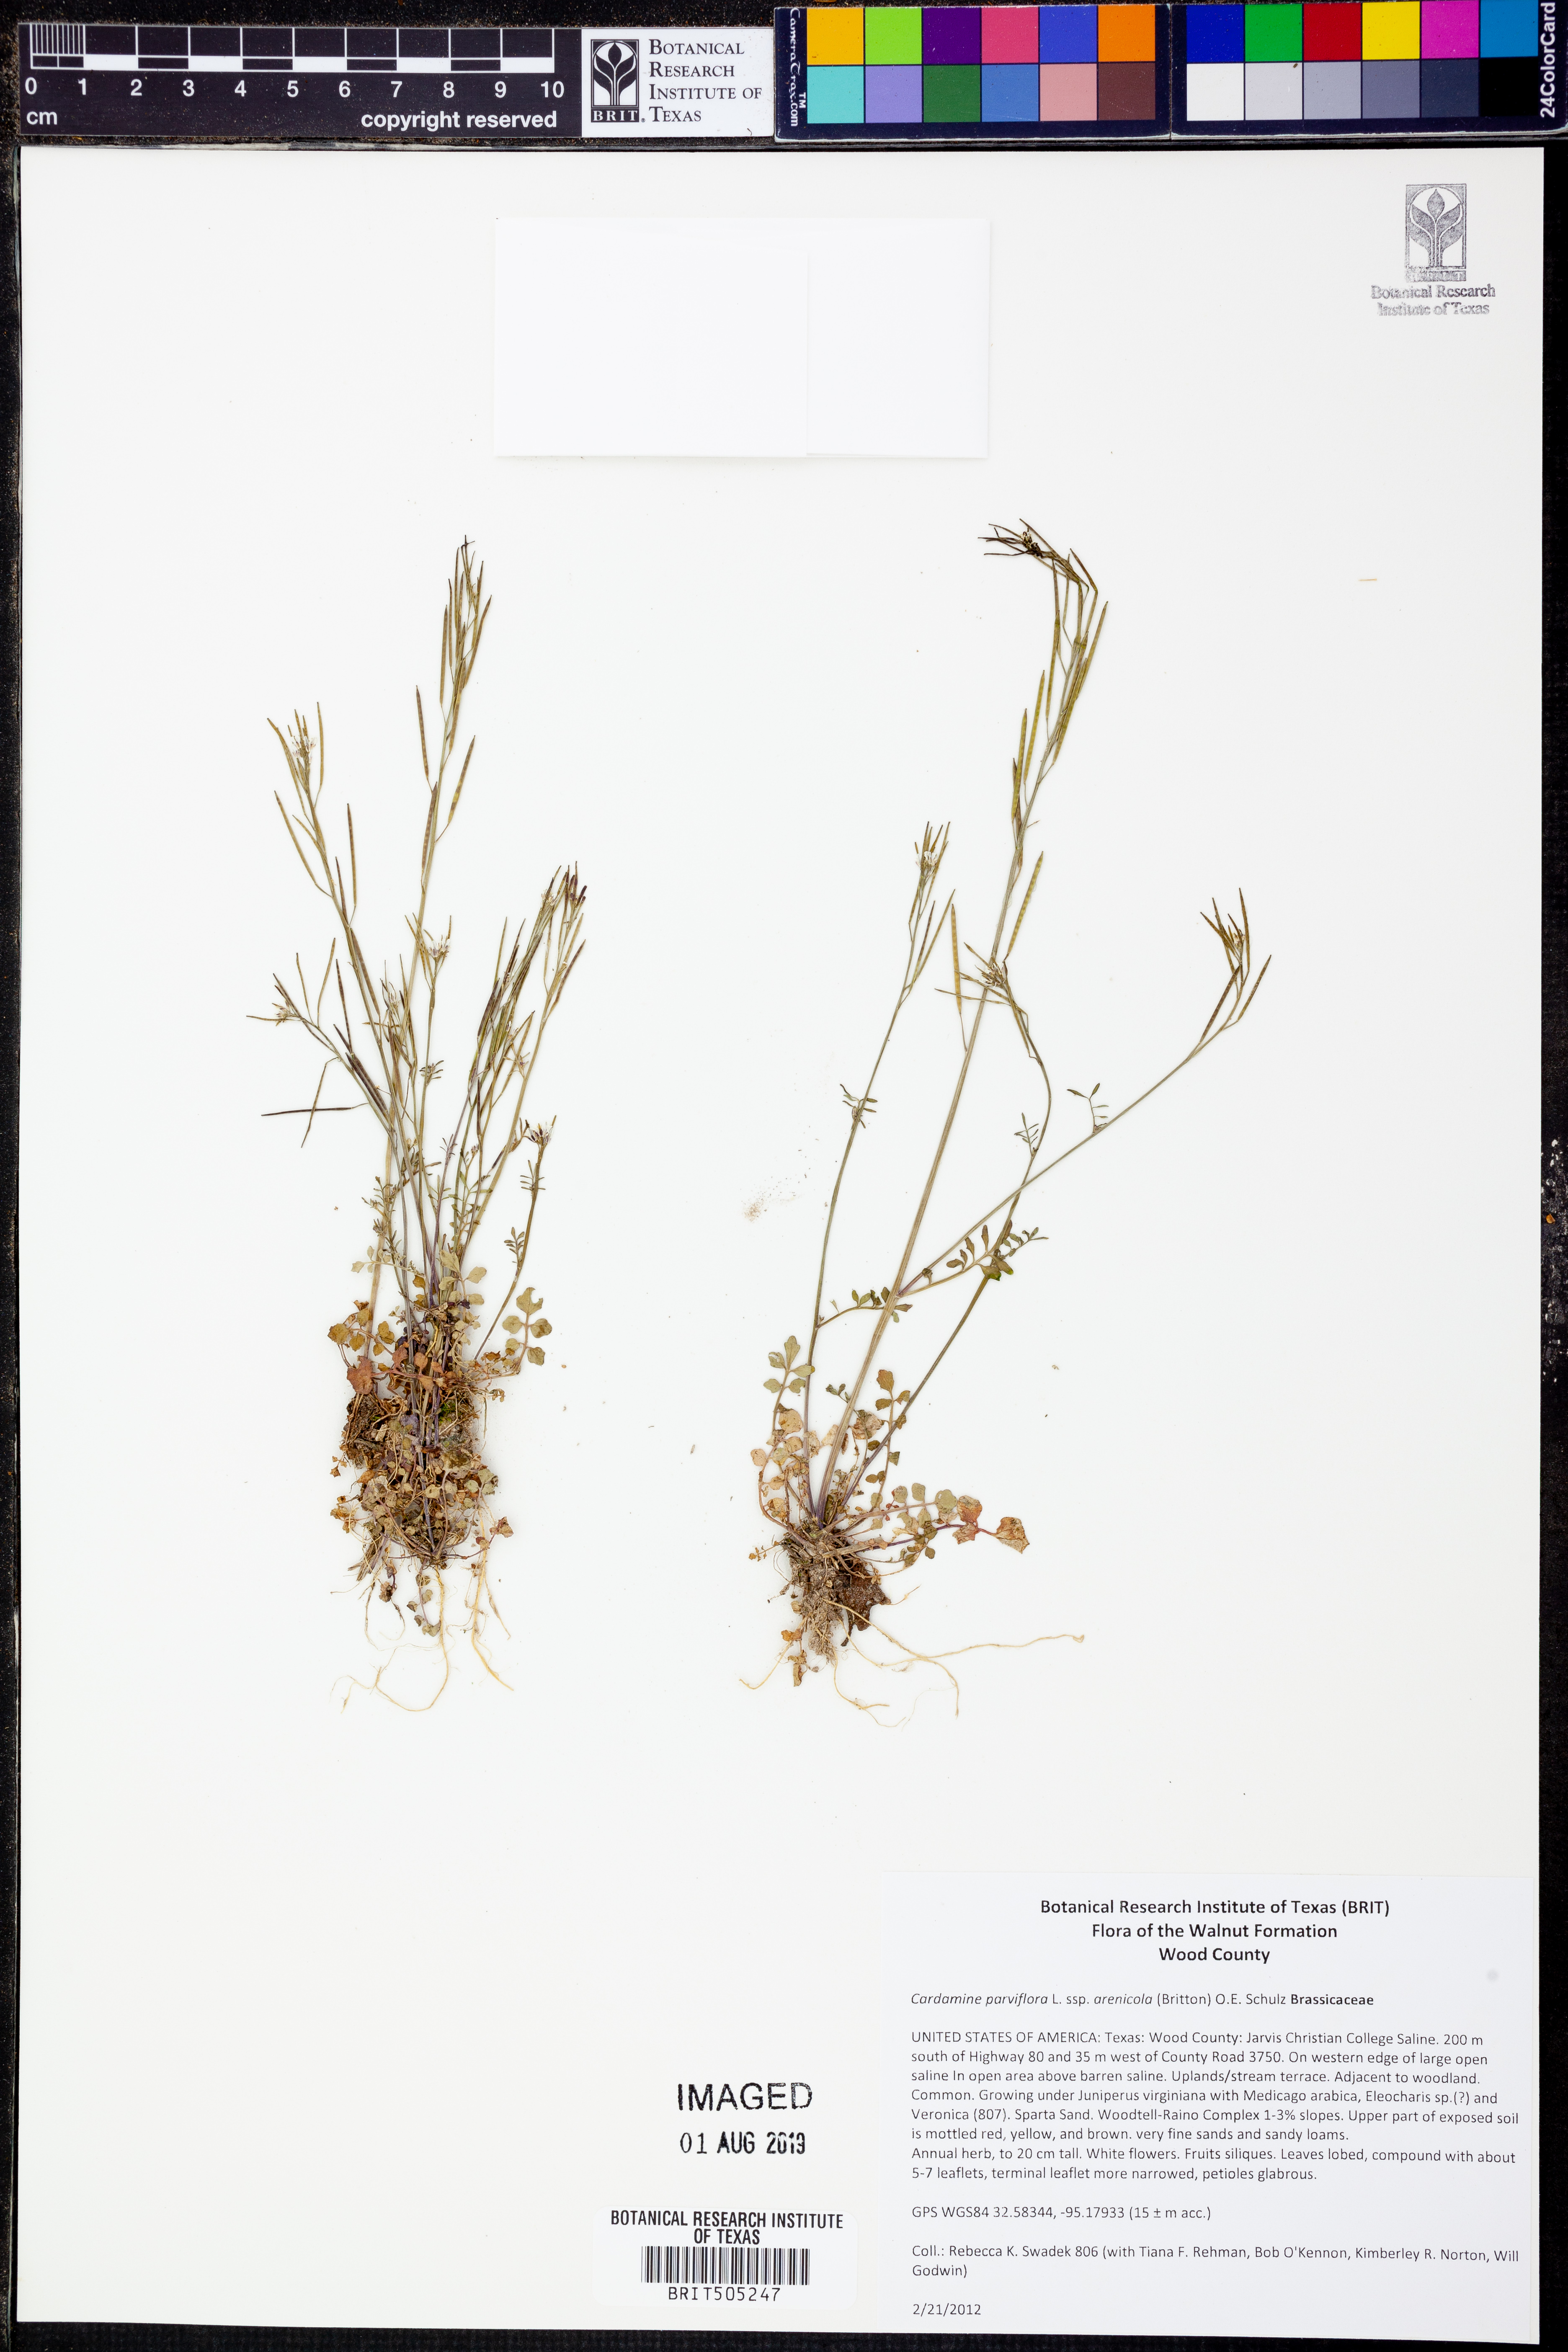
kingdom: Plantae
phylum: Tracheophyta
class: Magnoliopsida
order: Brassicales
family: Brassicaceae
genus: Cardamine
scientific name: Cardamine parviflora
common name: Sand bittercress
